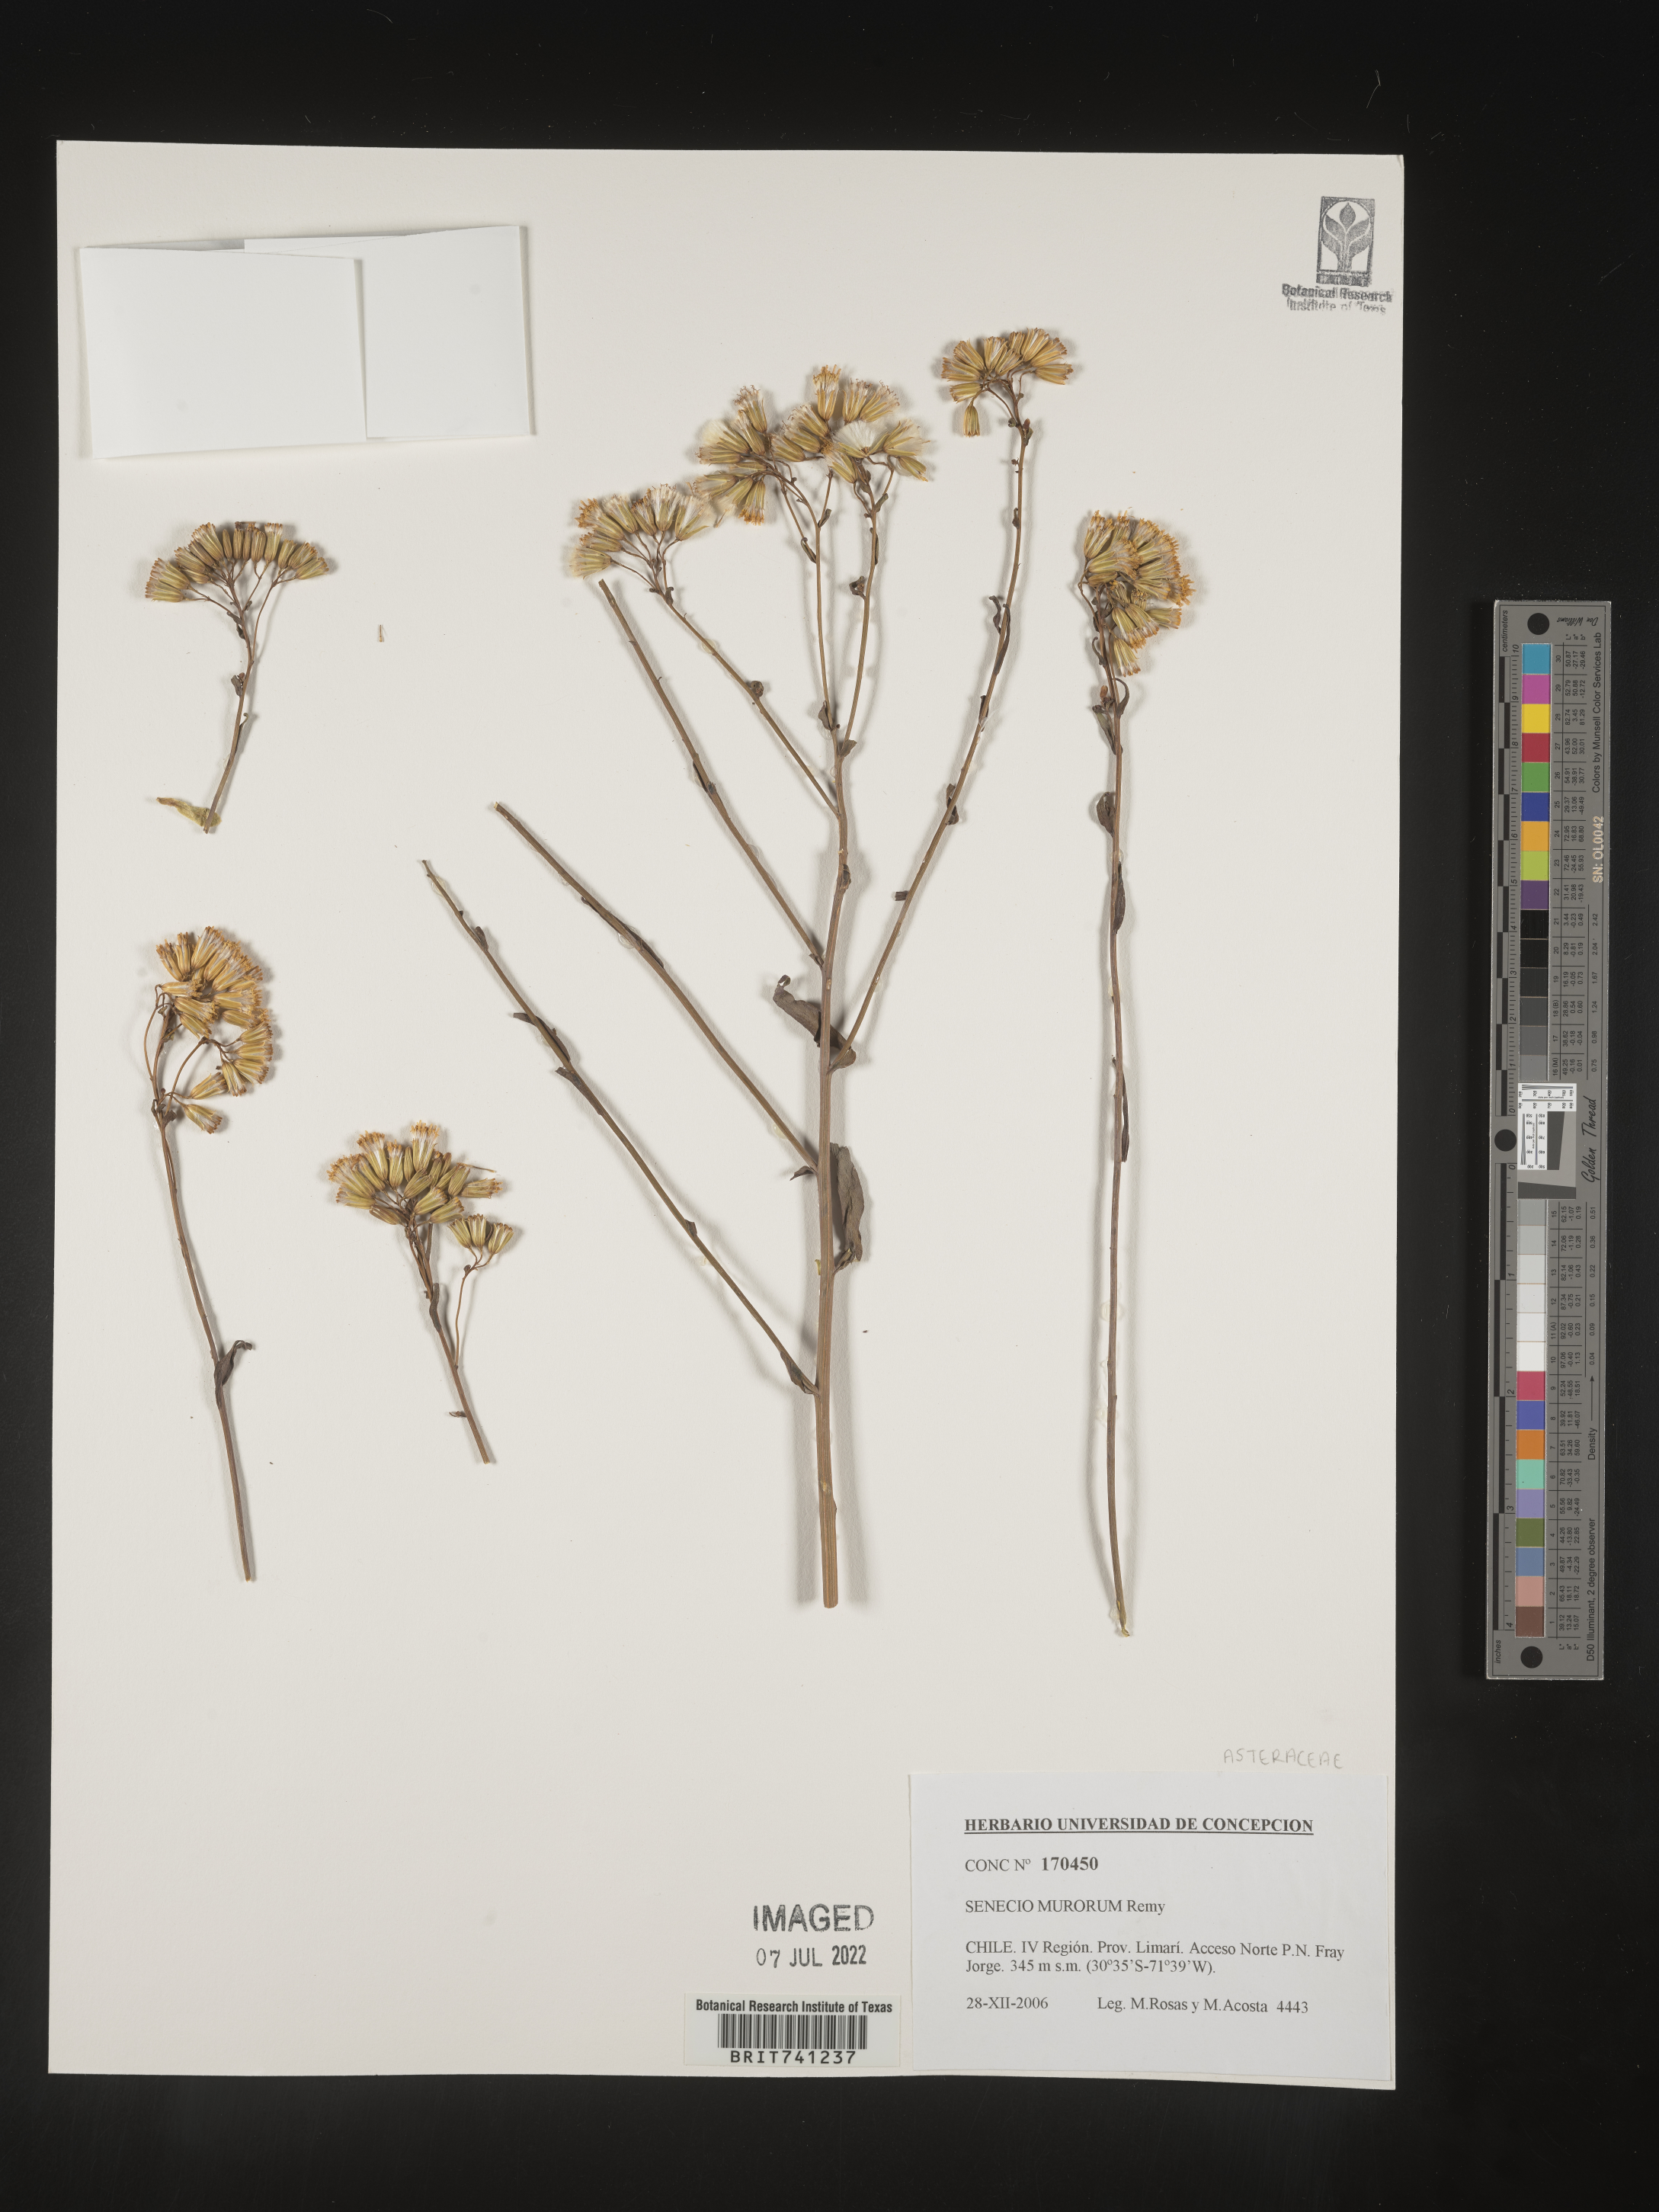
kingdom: Plantae
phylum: Tracheophyta
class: Magnoliopsida
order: Asterales
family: Asteraceae
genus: Senecio
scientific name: Senecio
